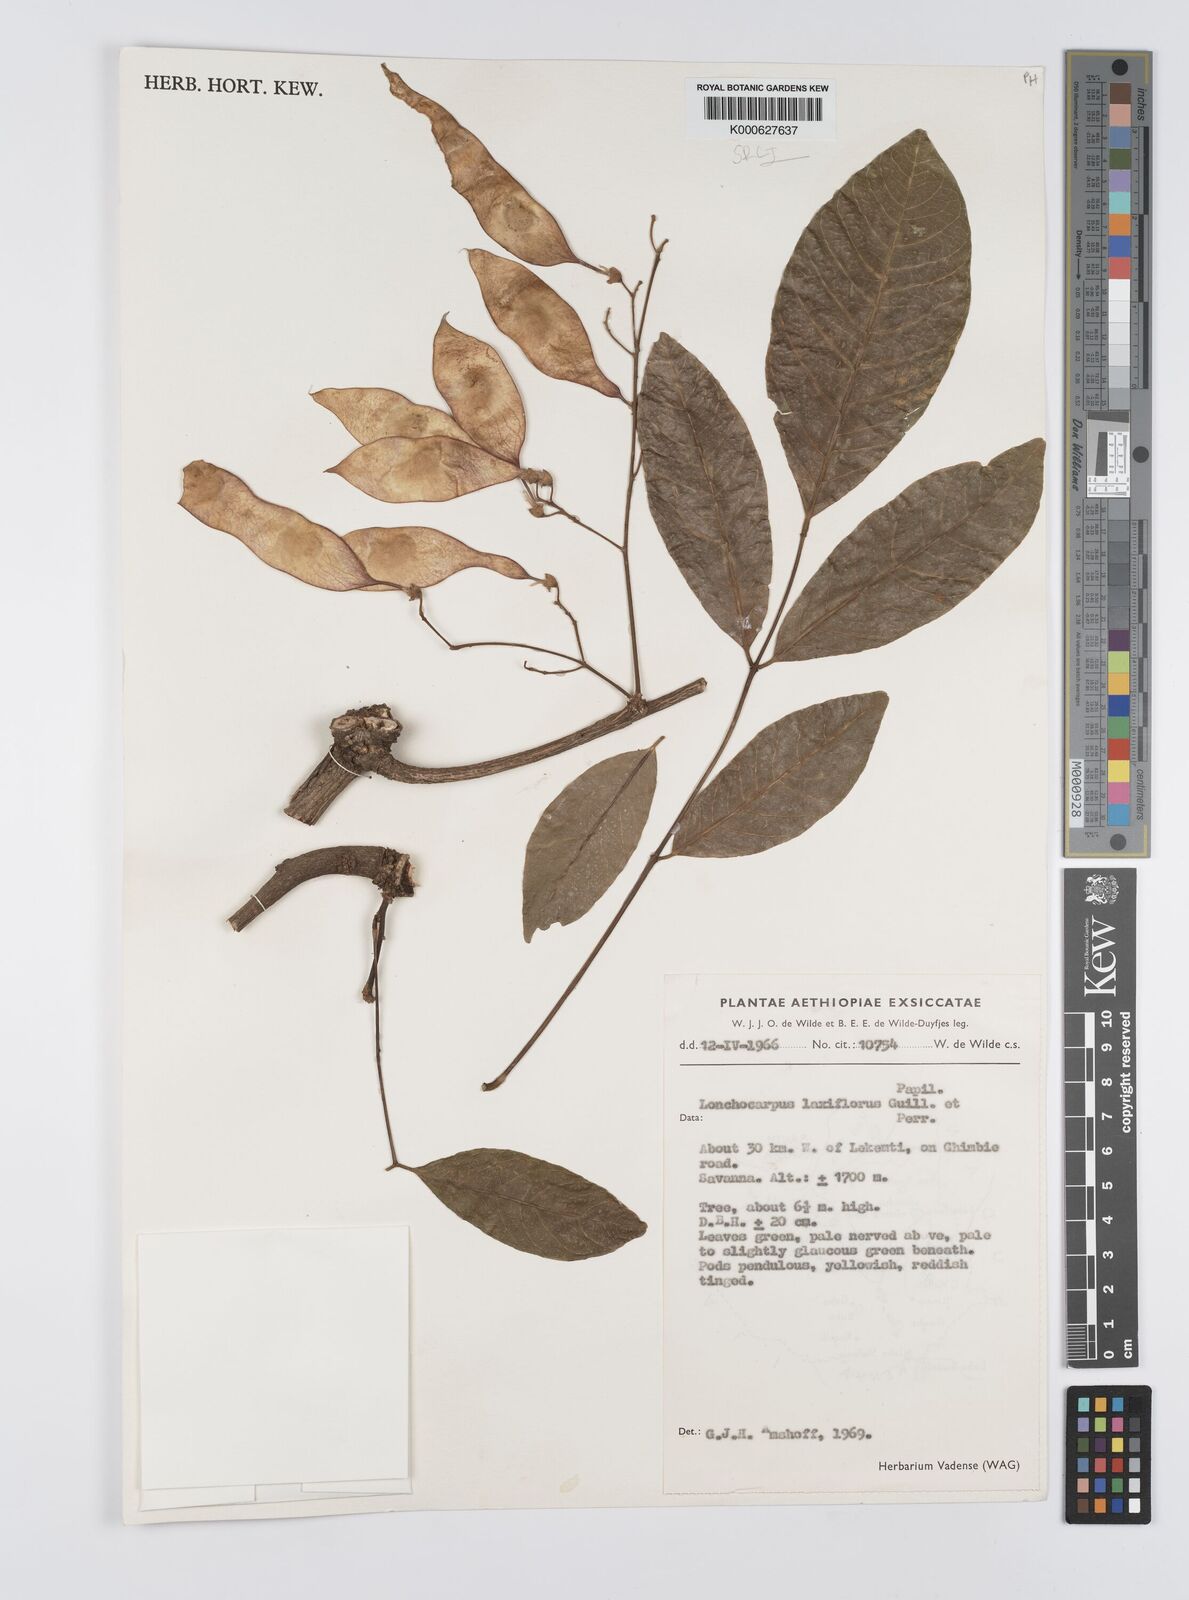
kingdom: Plantae
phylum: Tracheophyta
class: Magnoliopsida
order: Fabales
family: Fabaceae
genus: Philenoptera
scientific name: Philenoptera laxiflora
